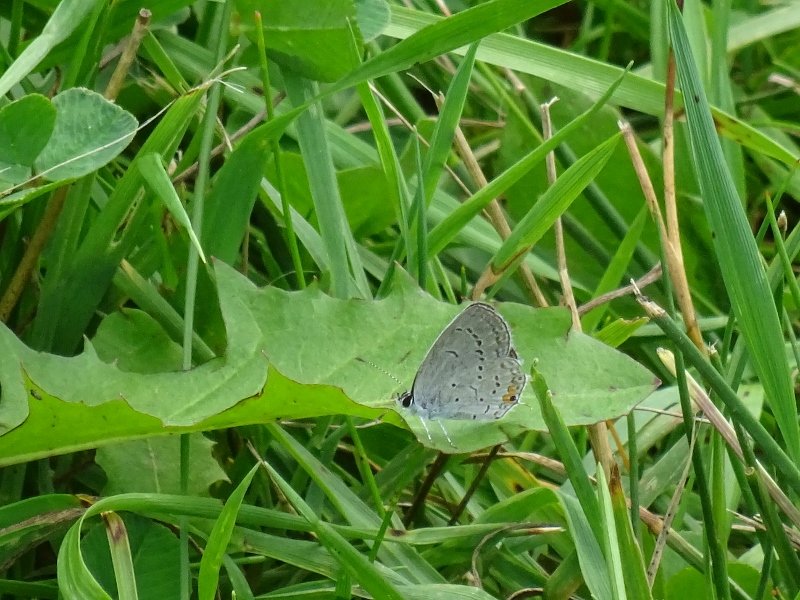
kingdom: Animalia
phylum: Arthropoda
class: Insecta
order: Lepidoptera
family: Lycaenidae
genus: Elkalyce
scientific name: Elkalyce comyntas
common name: Eastern Tailed-Blue
